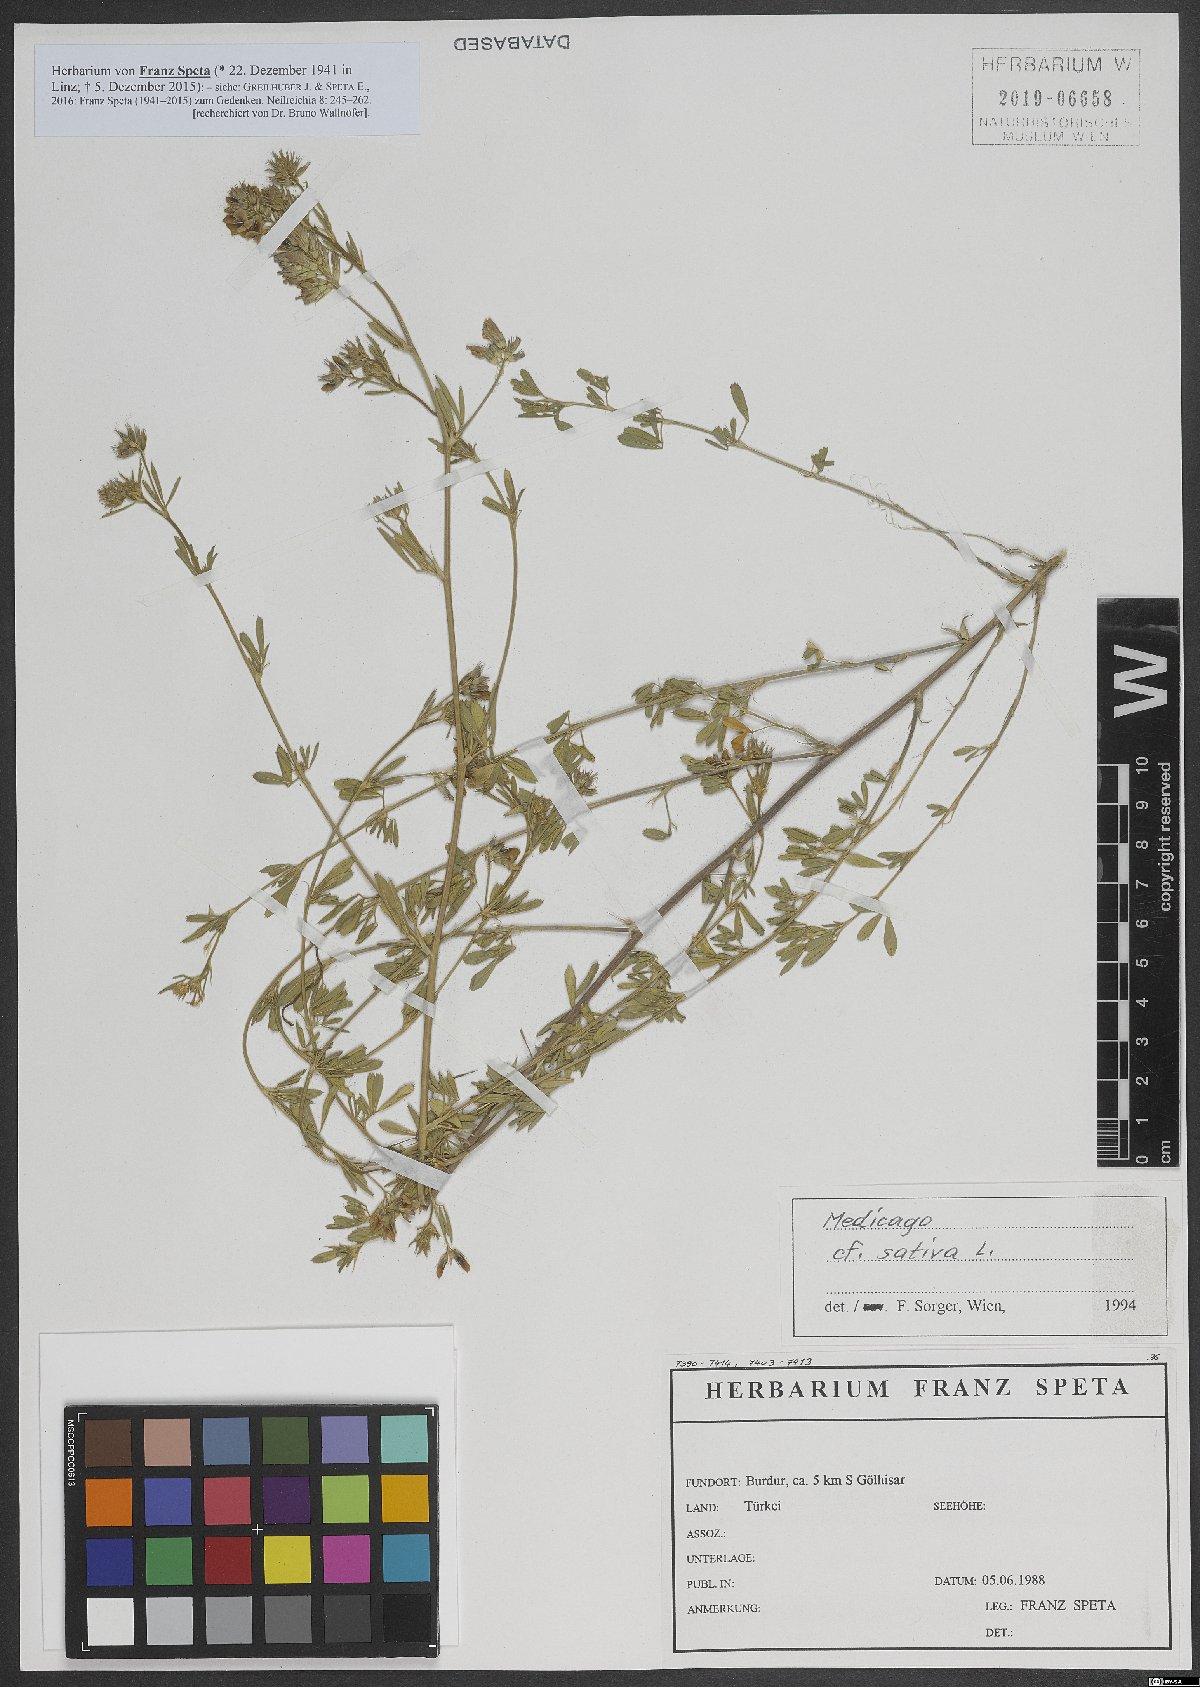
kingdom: Plantae
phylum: Tracheophyta
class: Magnoliopsida
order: Fabales
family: Fabaceae
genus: Medicago
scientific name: Medicago sativa
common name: Alfalfa
